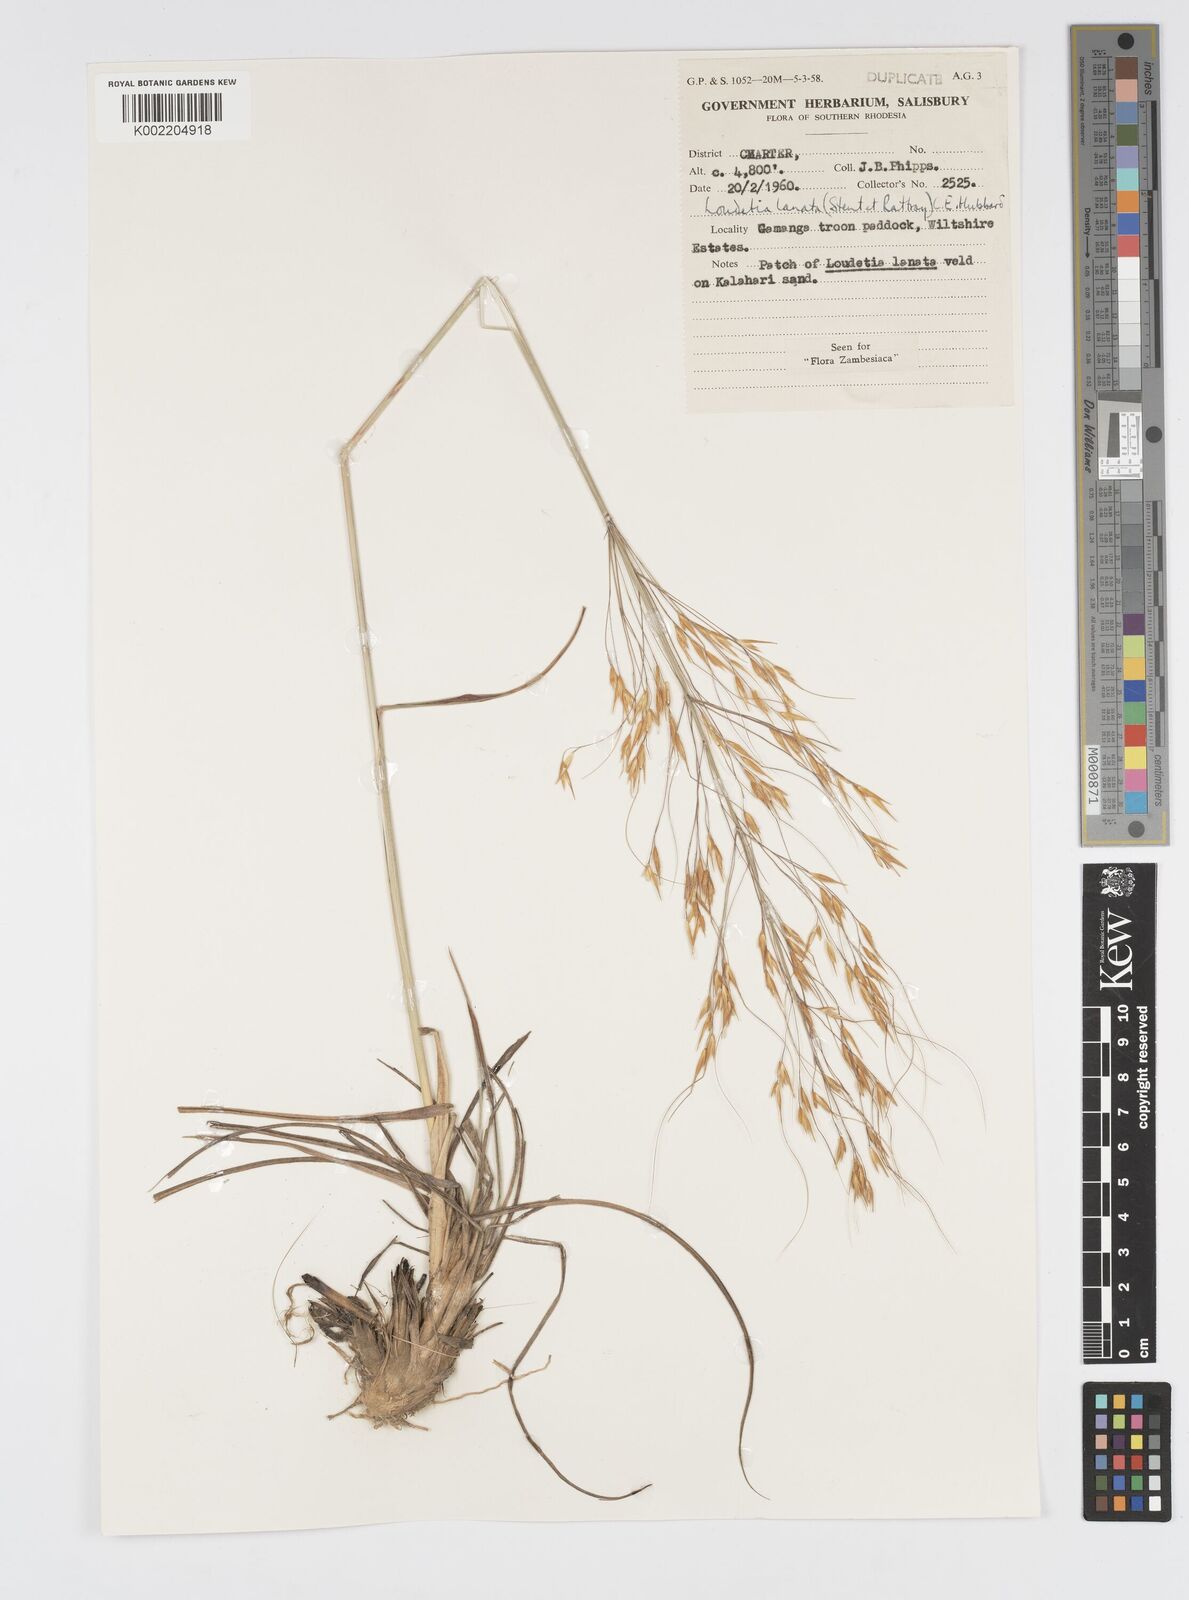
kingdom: Plantae
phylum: Tracheophyta
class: Liliopsida
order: Poales
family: Poaceae
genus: Loudetia
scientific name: Loudetia lanata
